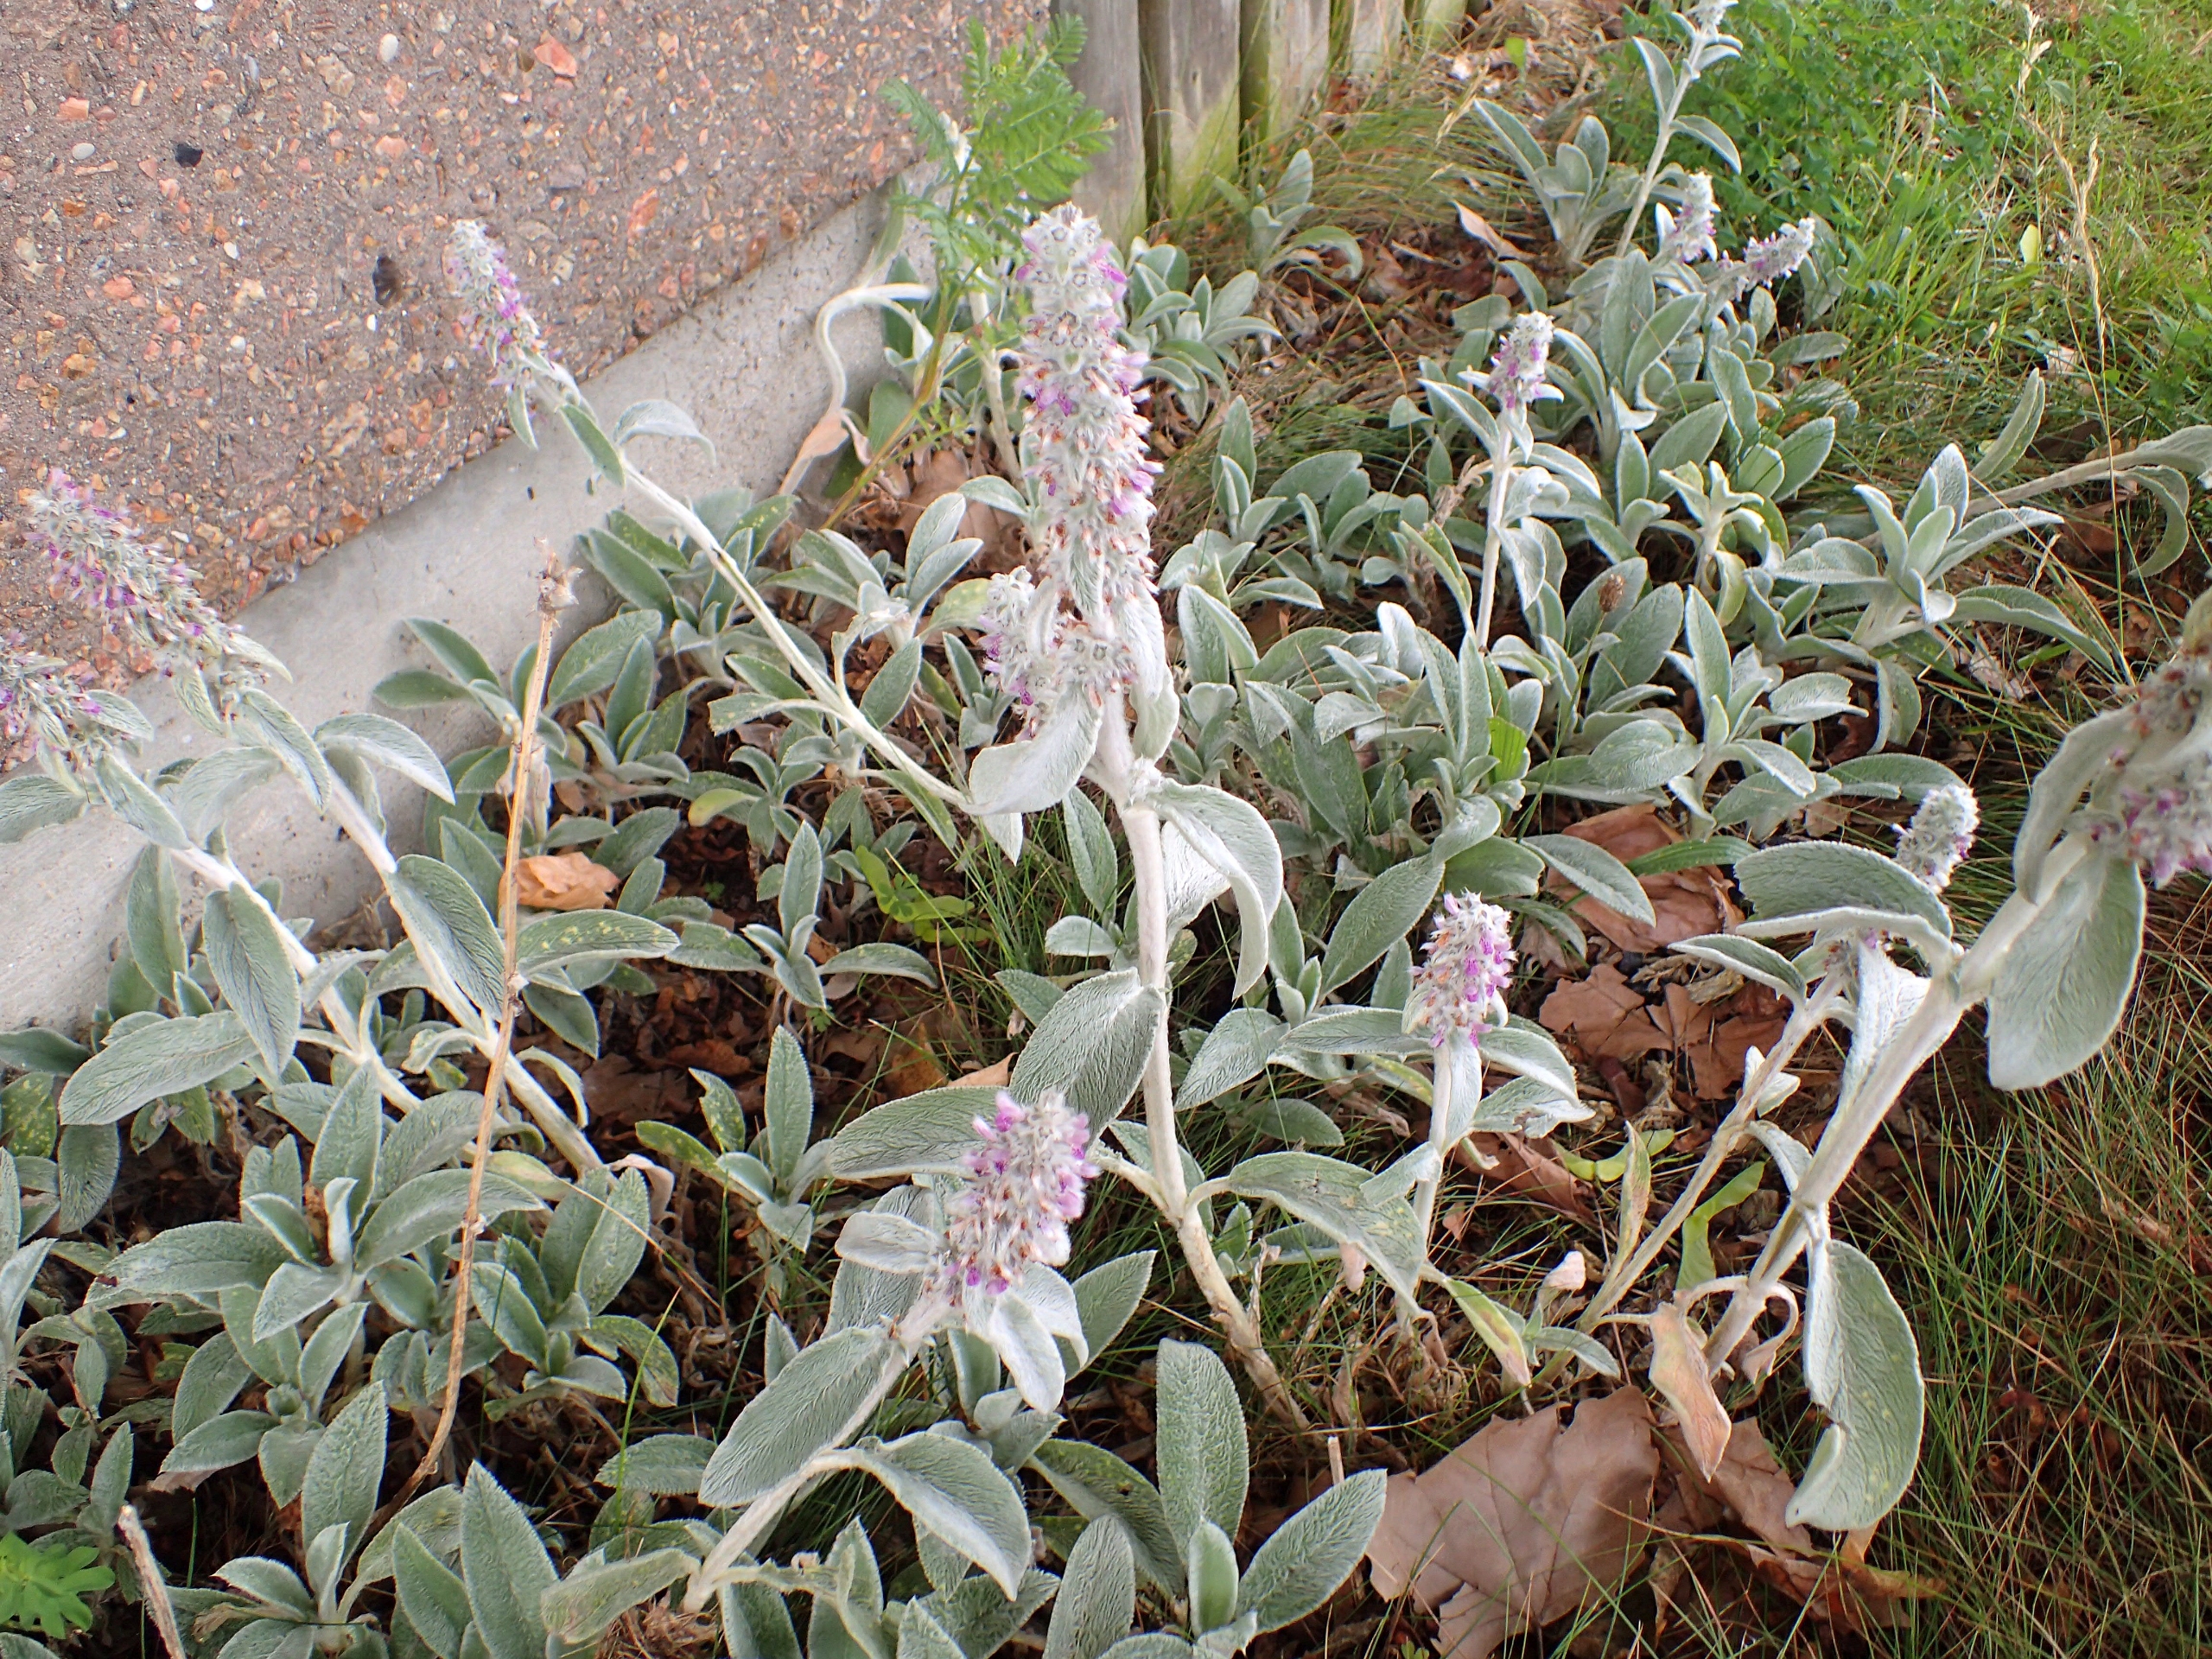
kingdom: Plantae
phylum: Tracheophyta
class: Magnoliopsida
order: Lamiales
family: Lamiaceae
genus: Stachys
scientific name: Stachys byzantina
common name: Lammeøre
